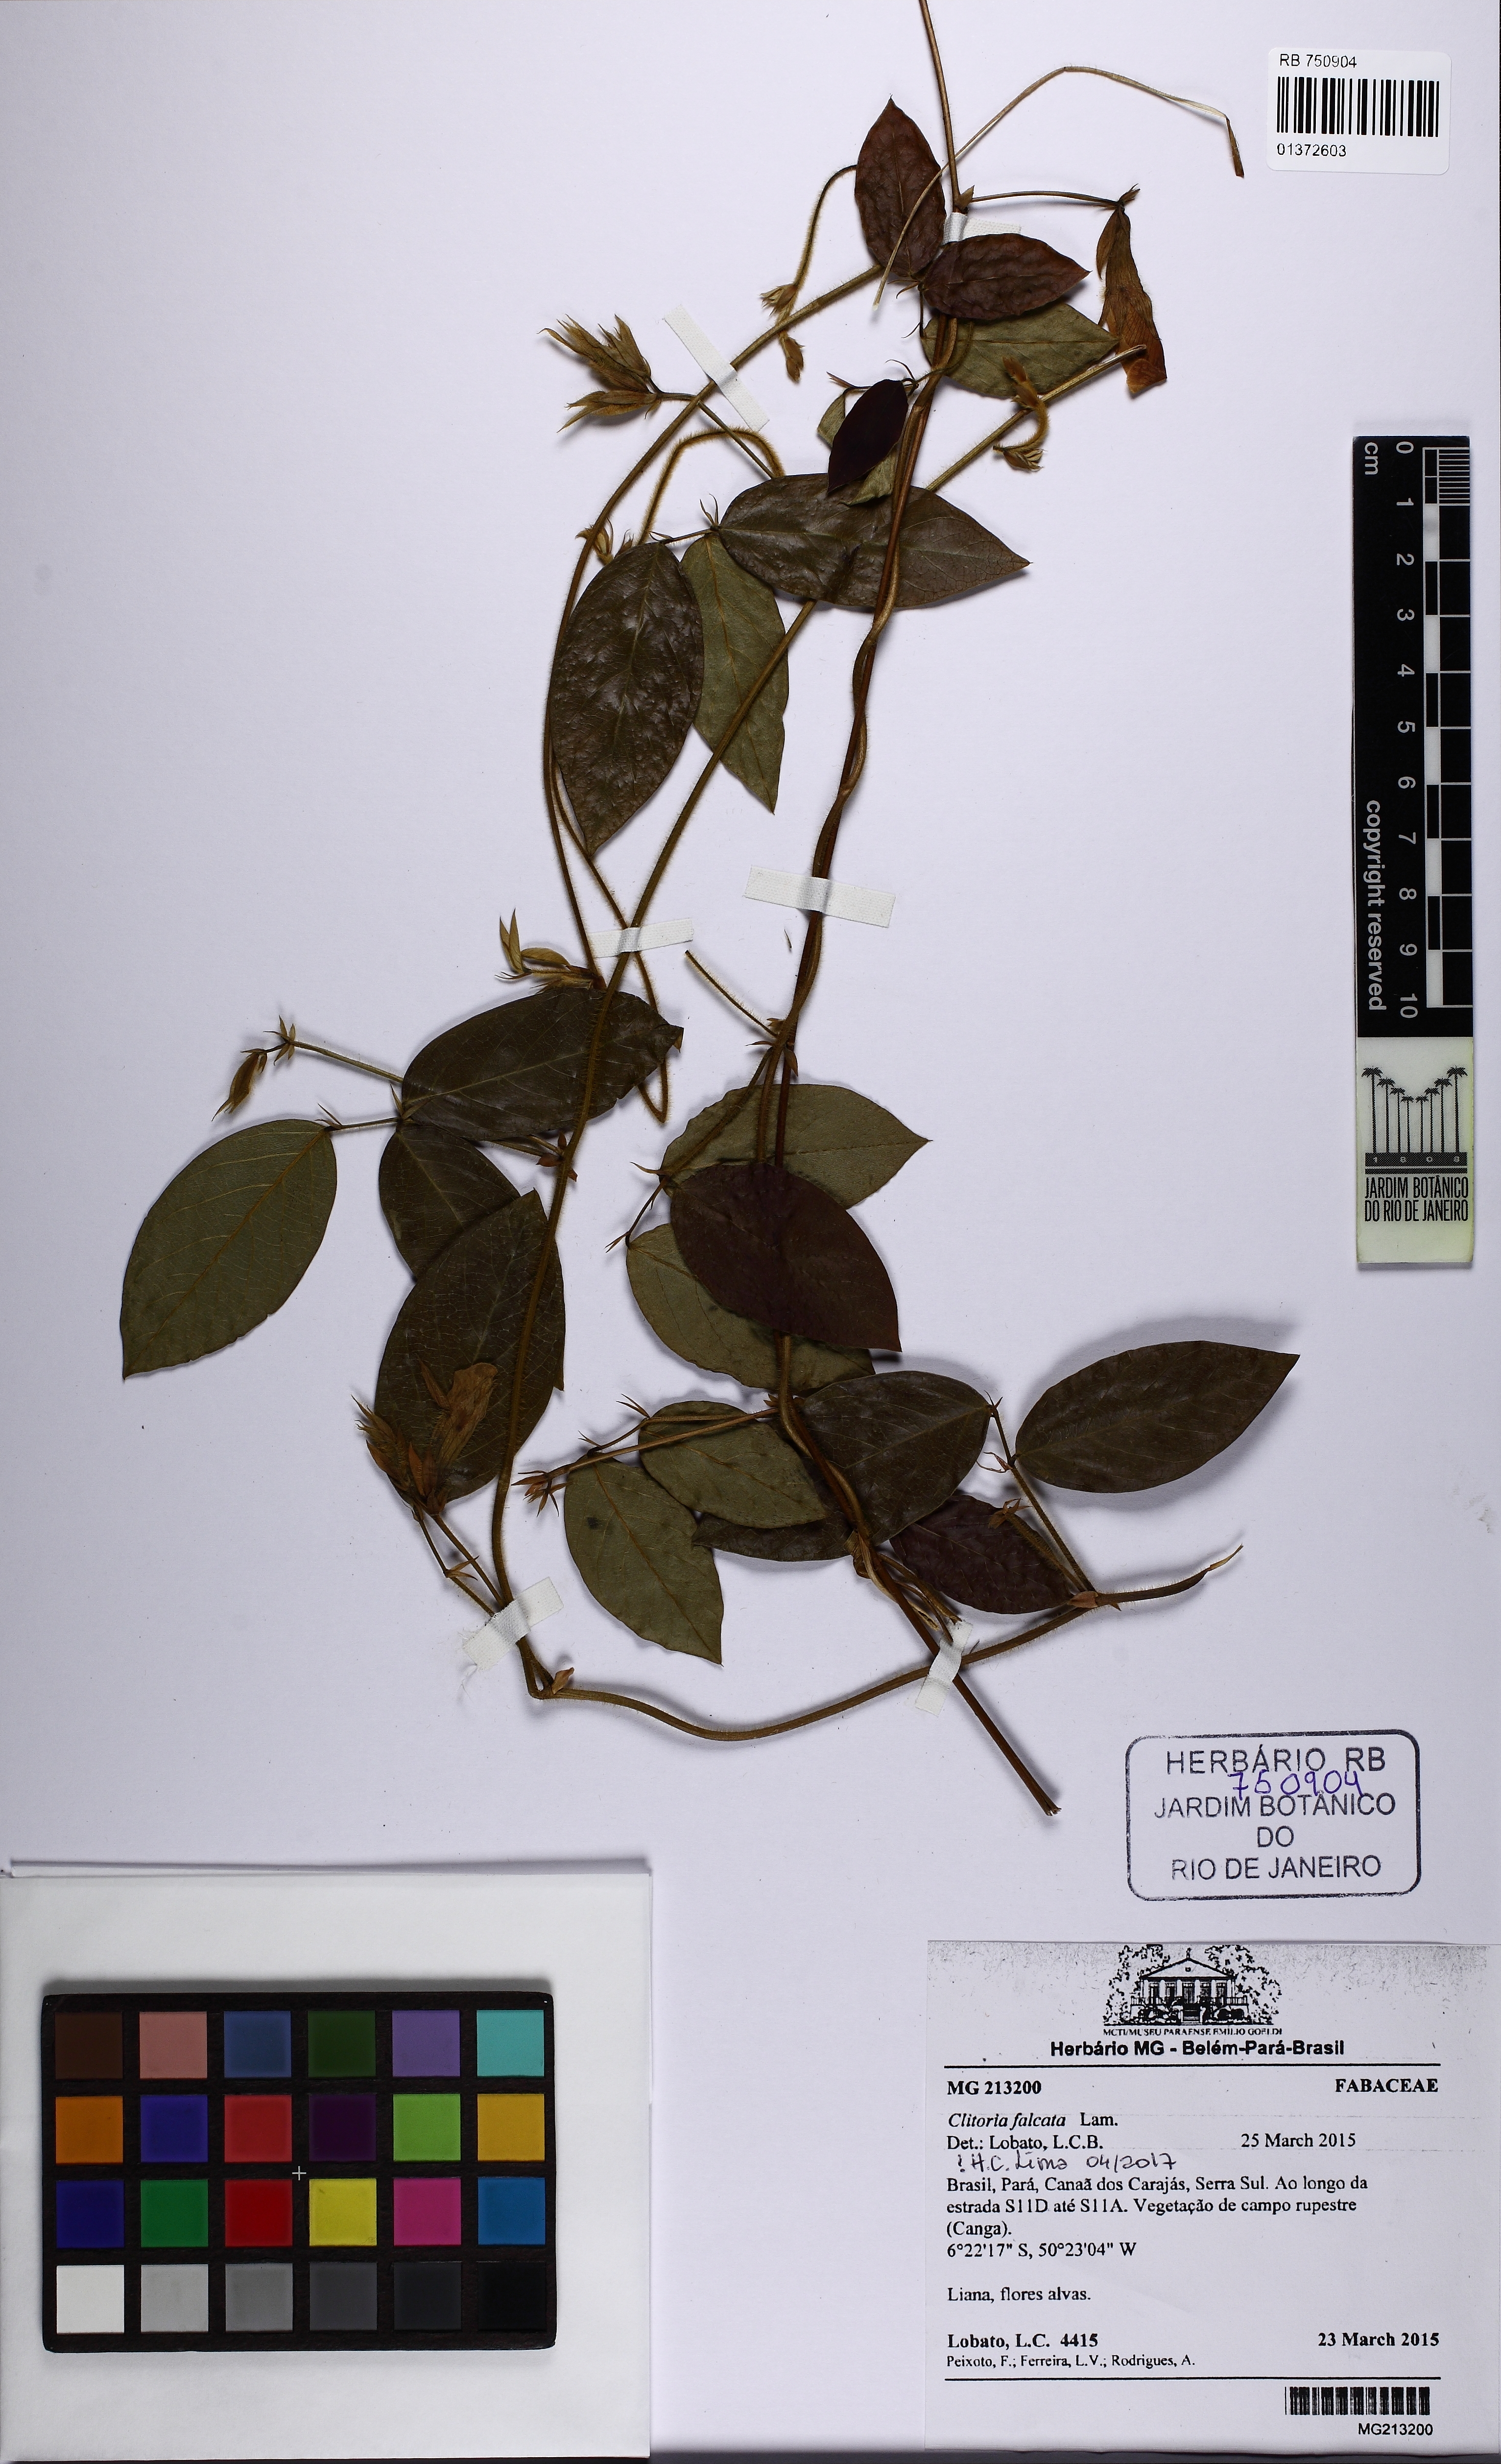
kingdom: Plantae
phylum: Tracheophyta
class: Magnoliopsida
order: Fabales
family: Fabaceae
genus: Clitoria
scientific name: Clitoria falcata
